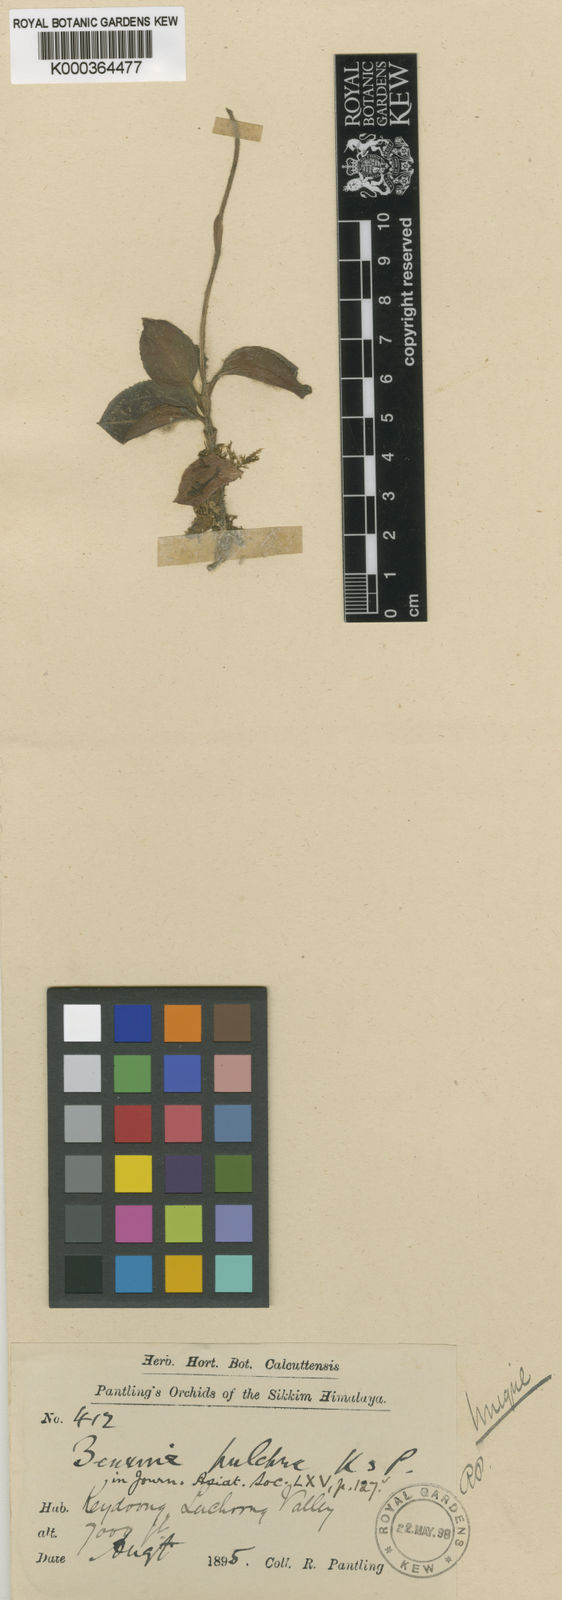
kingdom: Plantae
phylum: Tracheophyta
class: Liliopsida
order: Asparagales
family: Orchidaceae
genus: Rhomboda
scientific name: Rhomboda pulchra
